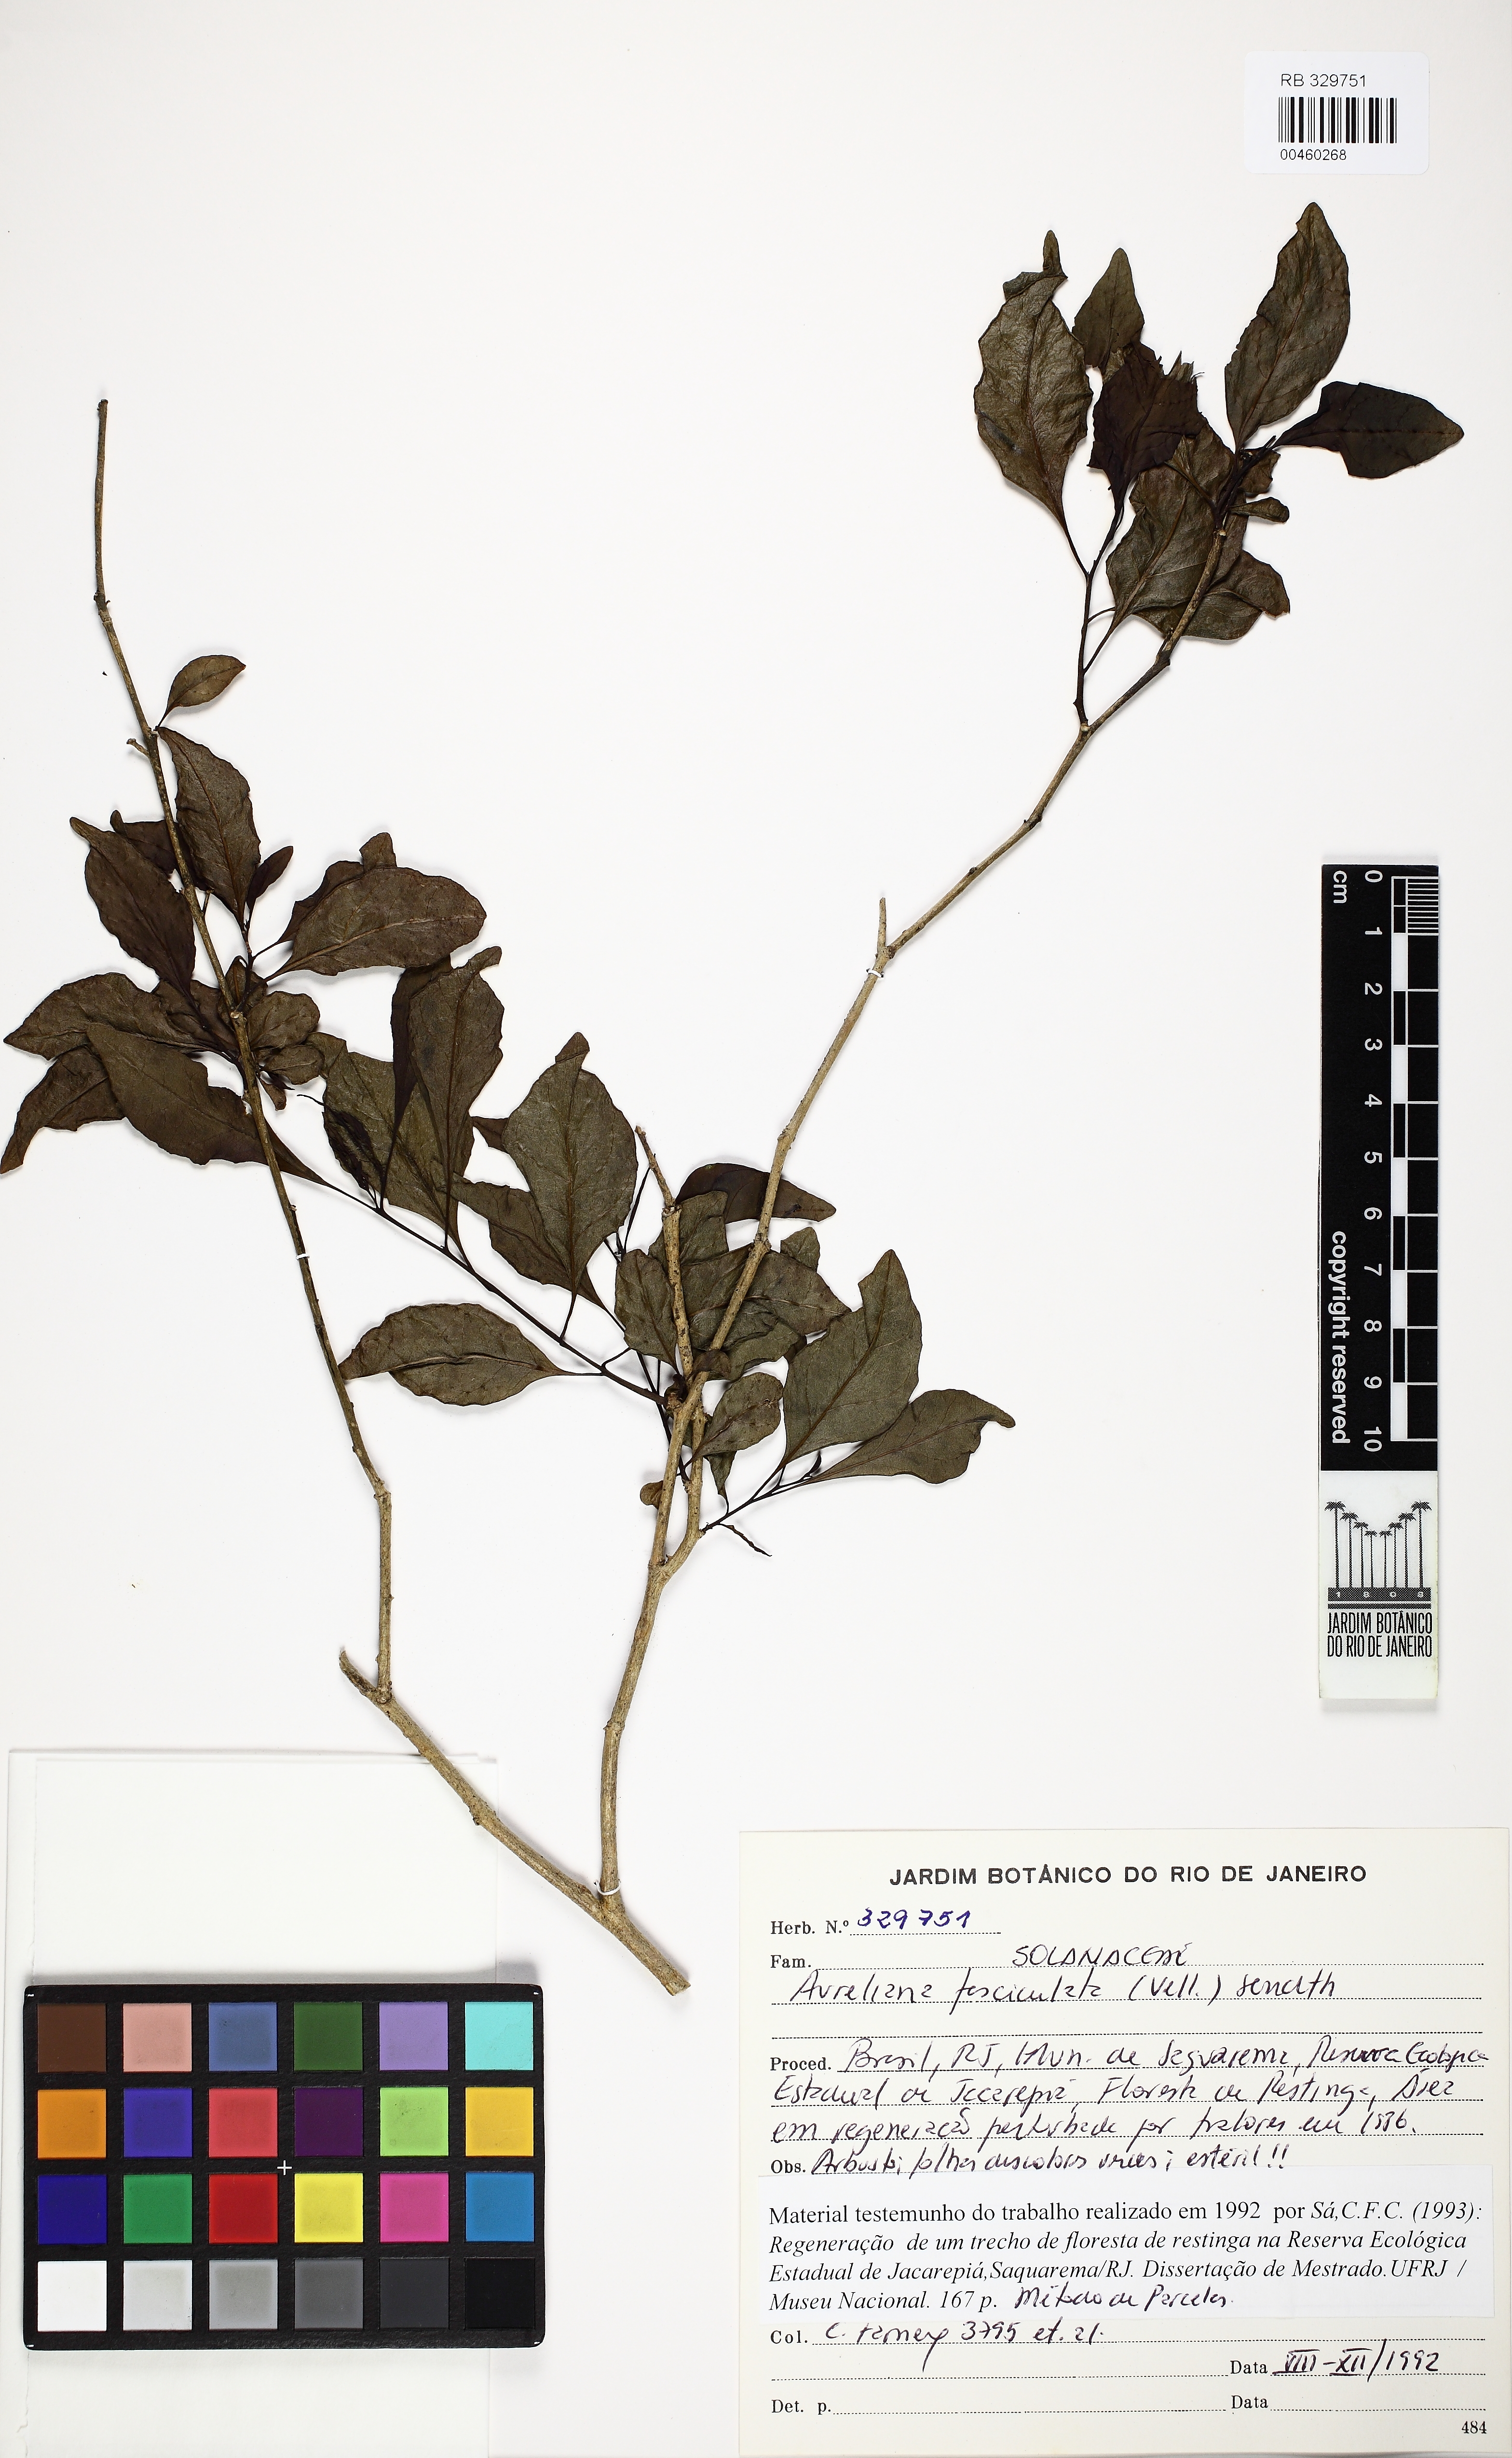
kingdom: Plantae
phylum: Tracheophyta
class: Magnoliopsida
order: Solanales
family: Solanaceae
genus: Athenaea
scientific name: Athenaea fasciculata
